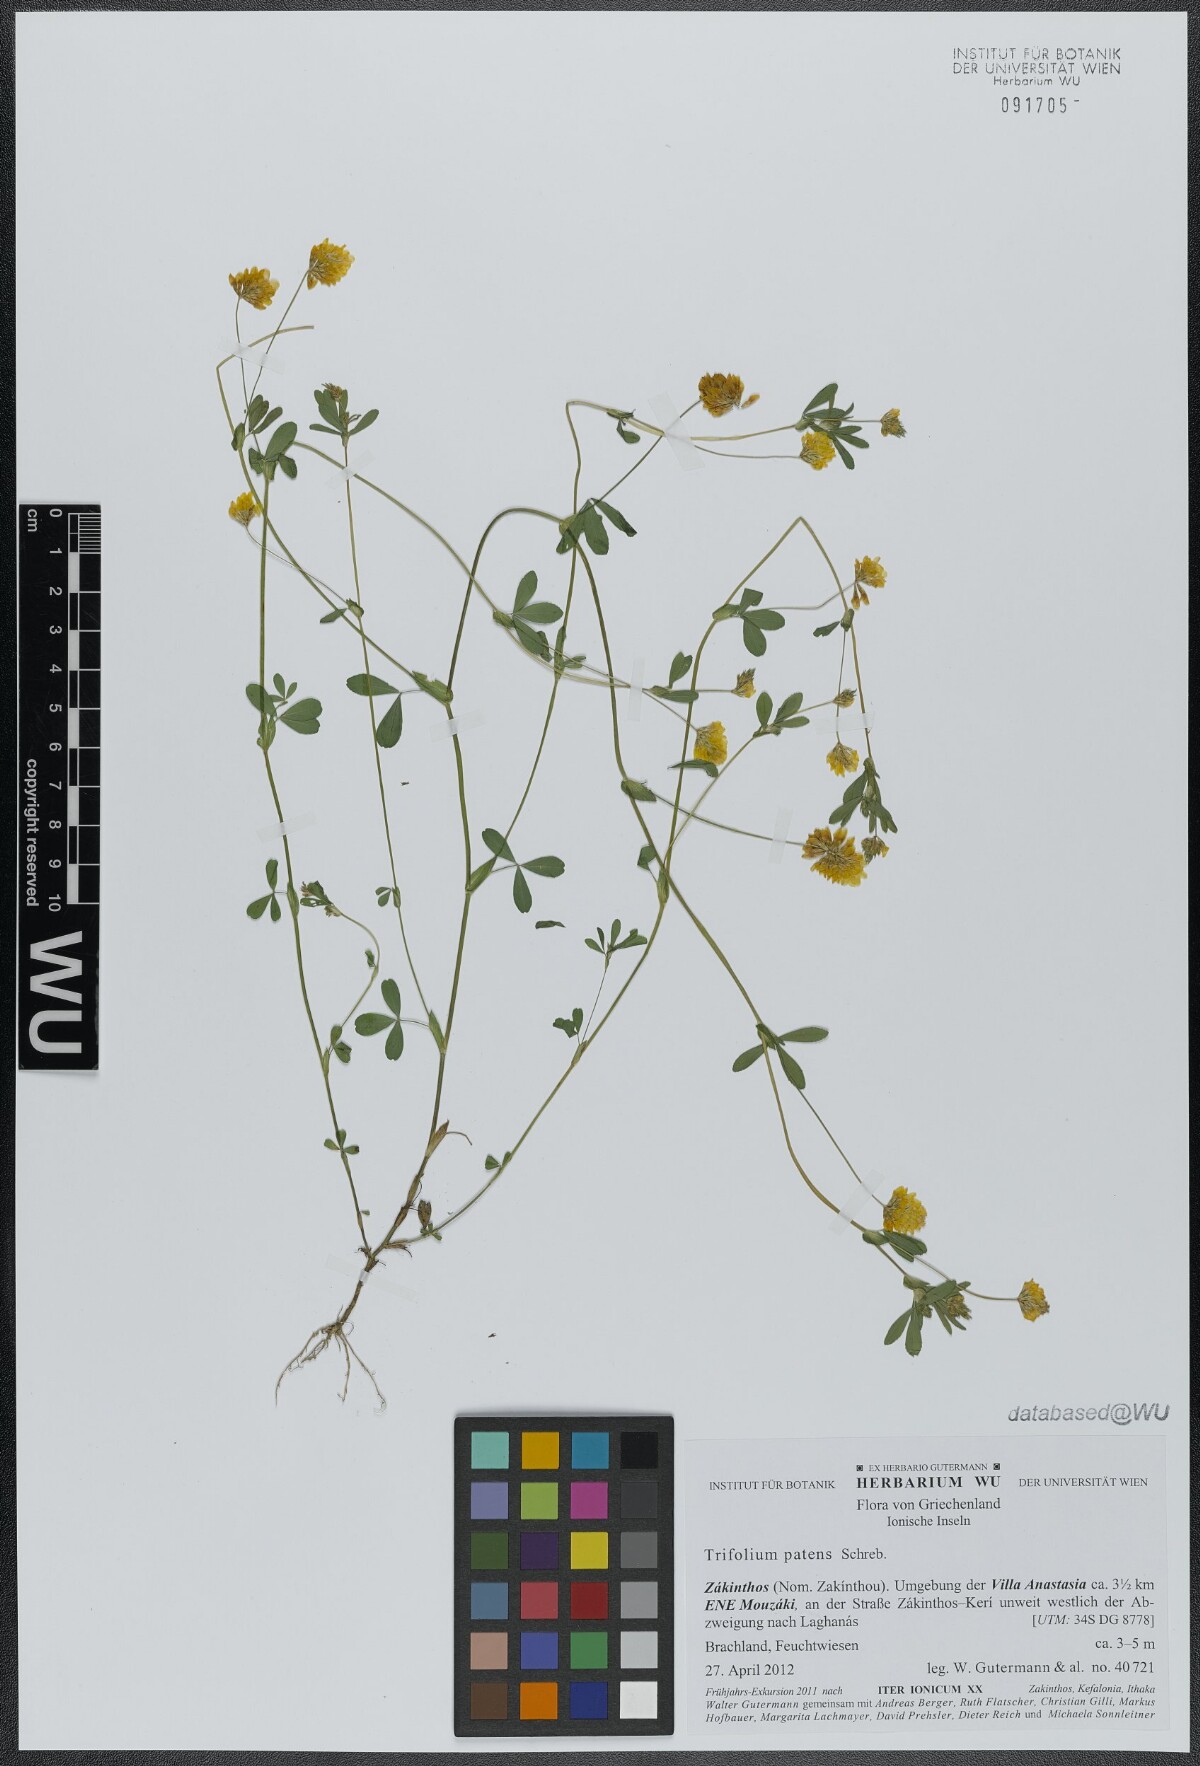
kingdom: Plantae
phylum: Tracheophyta
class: Magnoliopsida
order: Fabales
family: Fabaceae
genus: Trifolium
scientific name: Trifolium patens
